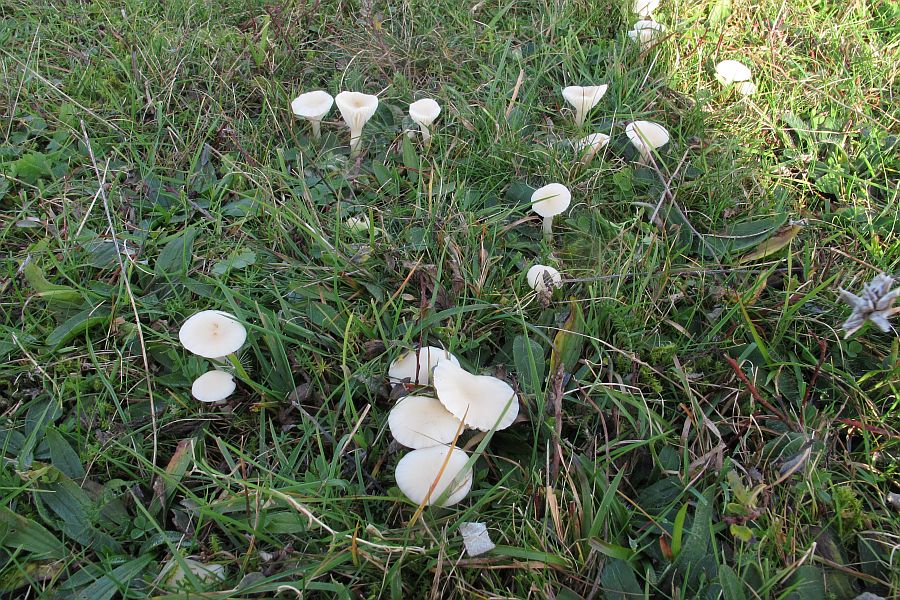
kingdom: Fungi
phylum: Basidiomycota
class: Agaricomycetes
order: Agaricales
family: Hygrophoraceae
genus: Cuphophyllus
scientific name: Cuphophyllus virgineus
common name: snehvid vokshat
